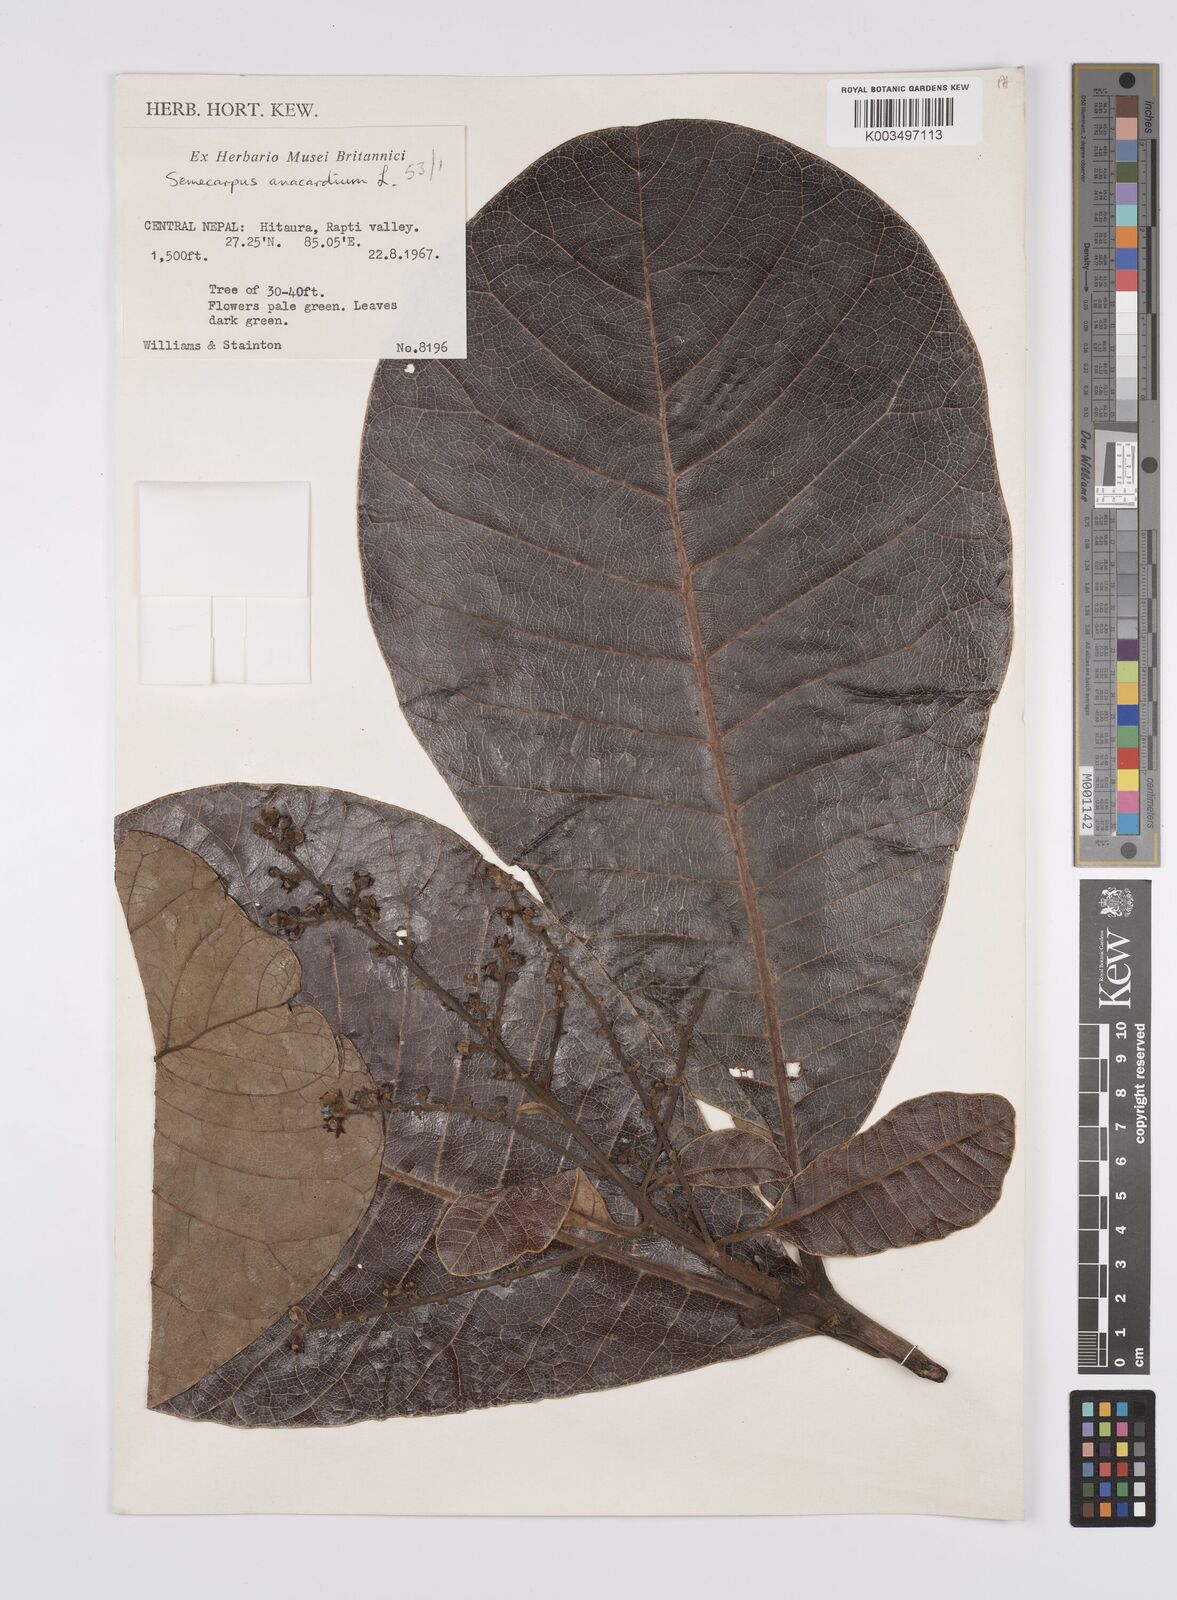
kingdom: Plantae
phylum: Tracheophyta
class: Magnoliopsida
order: Sapindales
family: Anacardiaceae
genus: Semecarpus
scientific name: Semecarpus anacardium
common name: Marking nut-tree
